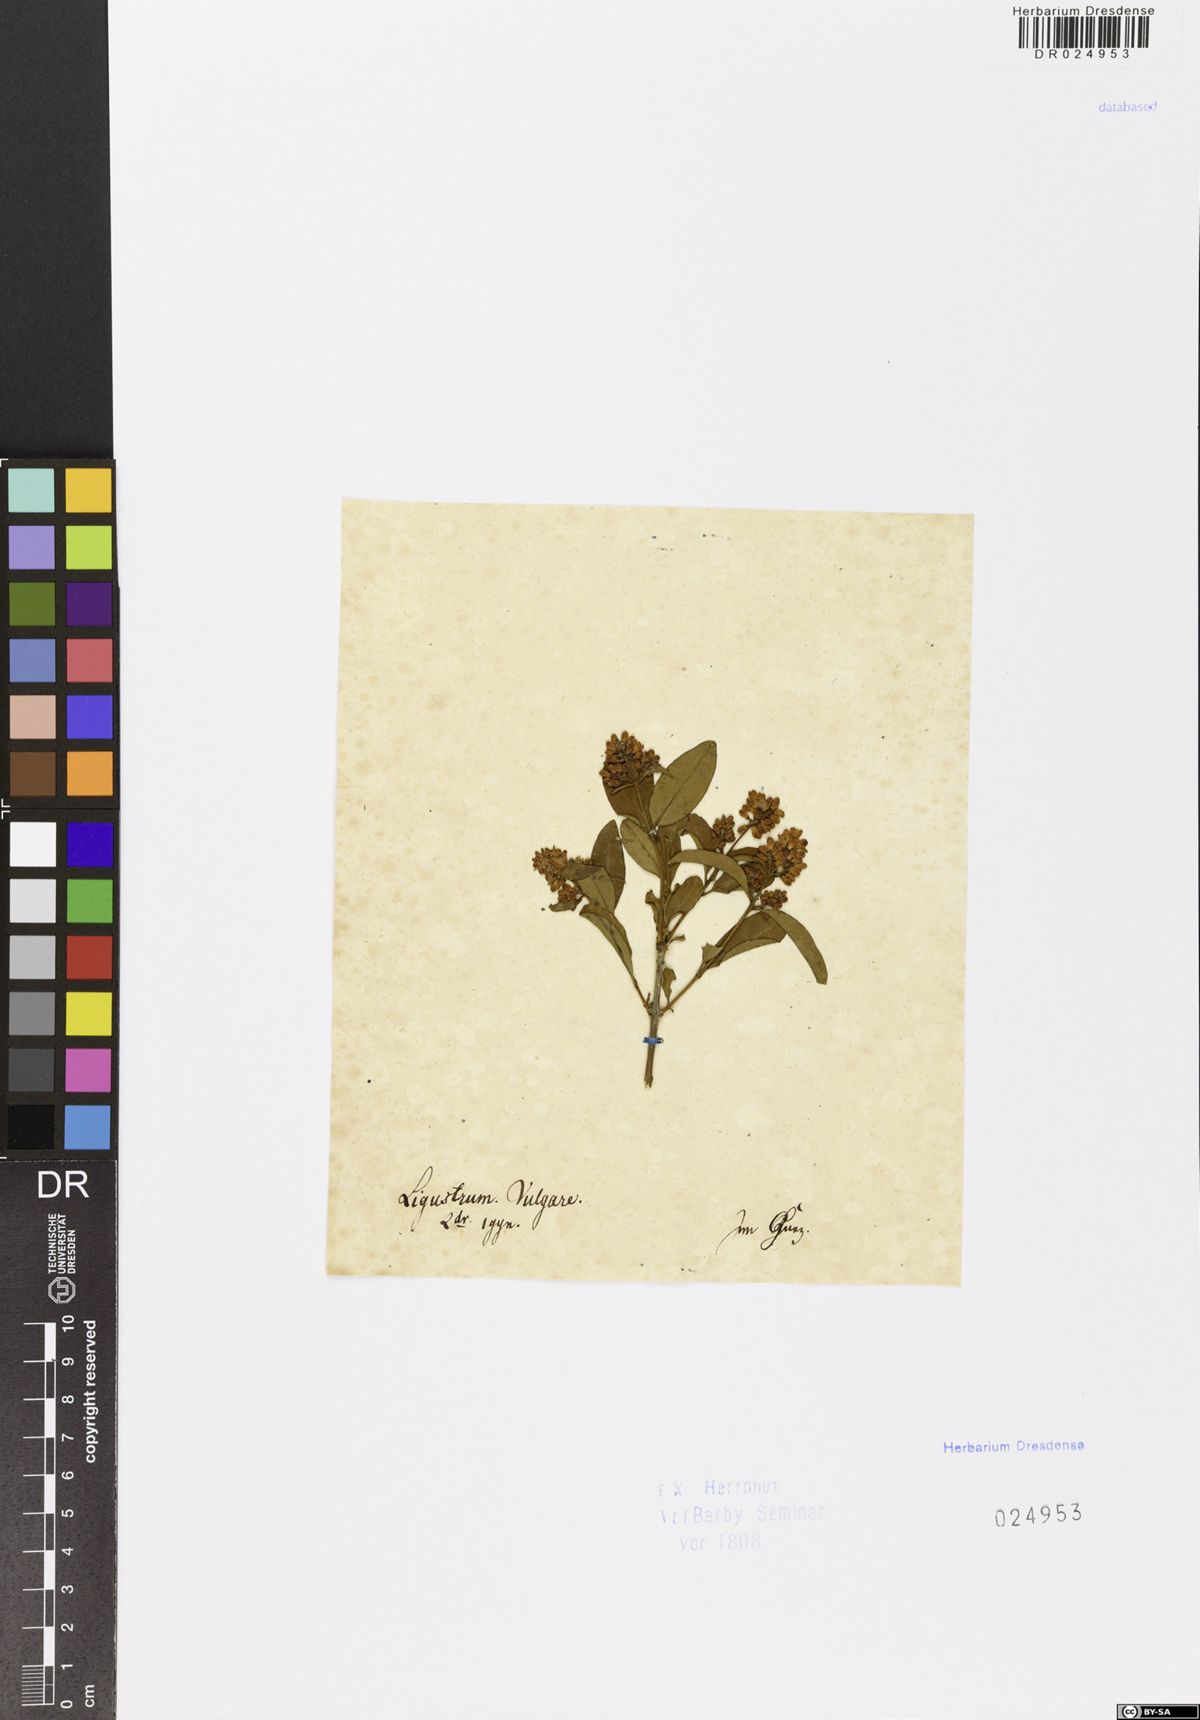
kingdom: Plantae
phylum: Tracheophyta
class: Magnoliopsida
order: Lamiales
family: Oleaceae
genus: Ligustrum
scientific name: Ligustrum vulgare
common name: Wild privet
